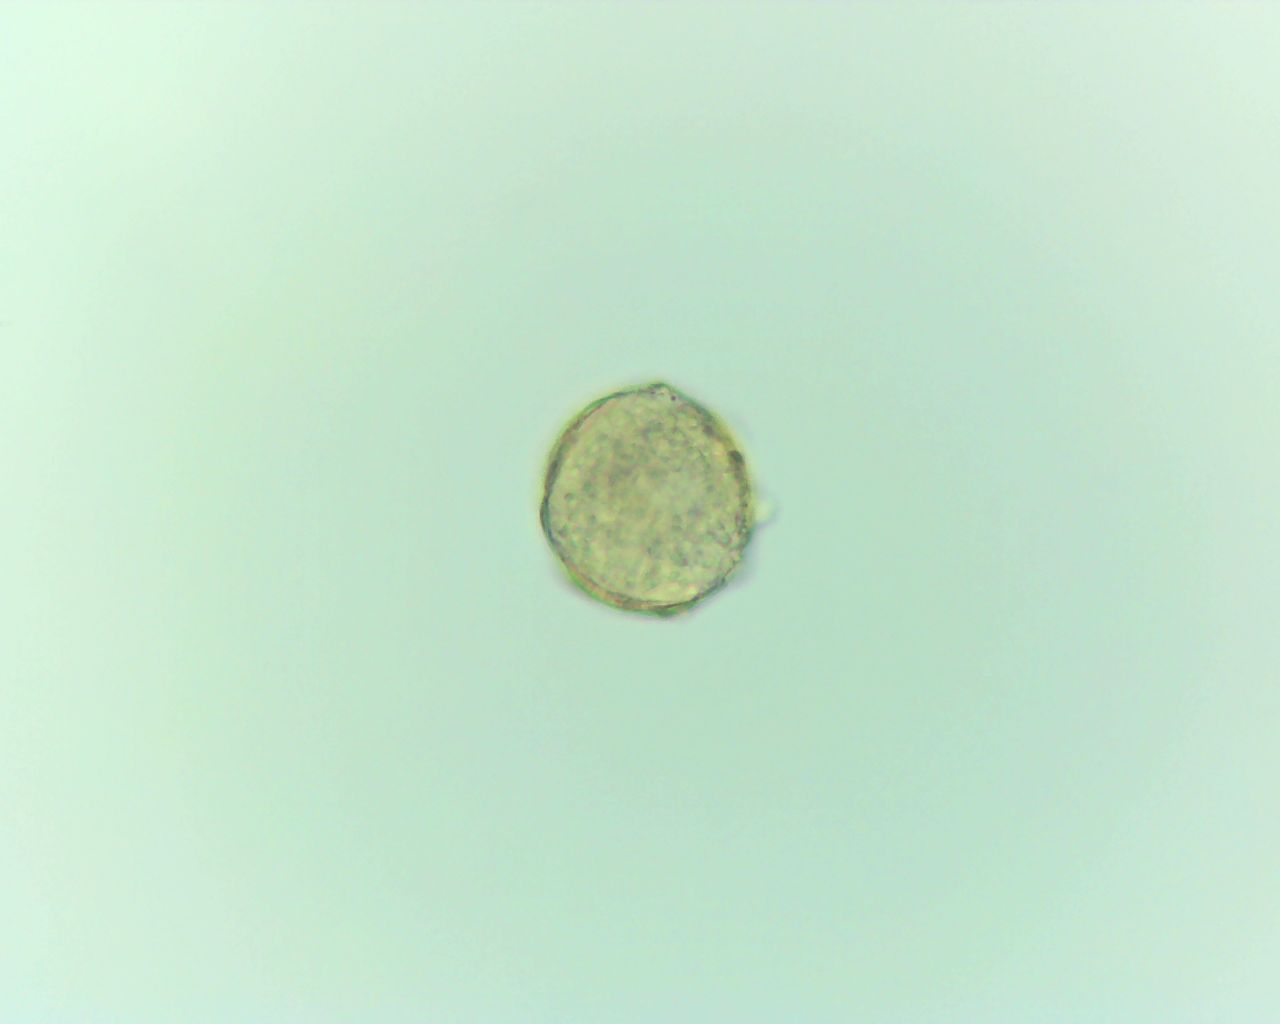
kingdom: Fungi
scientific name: Fungi
